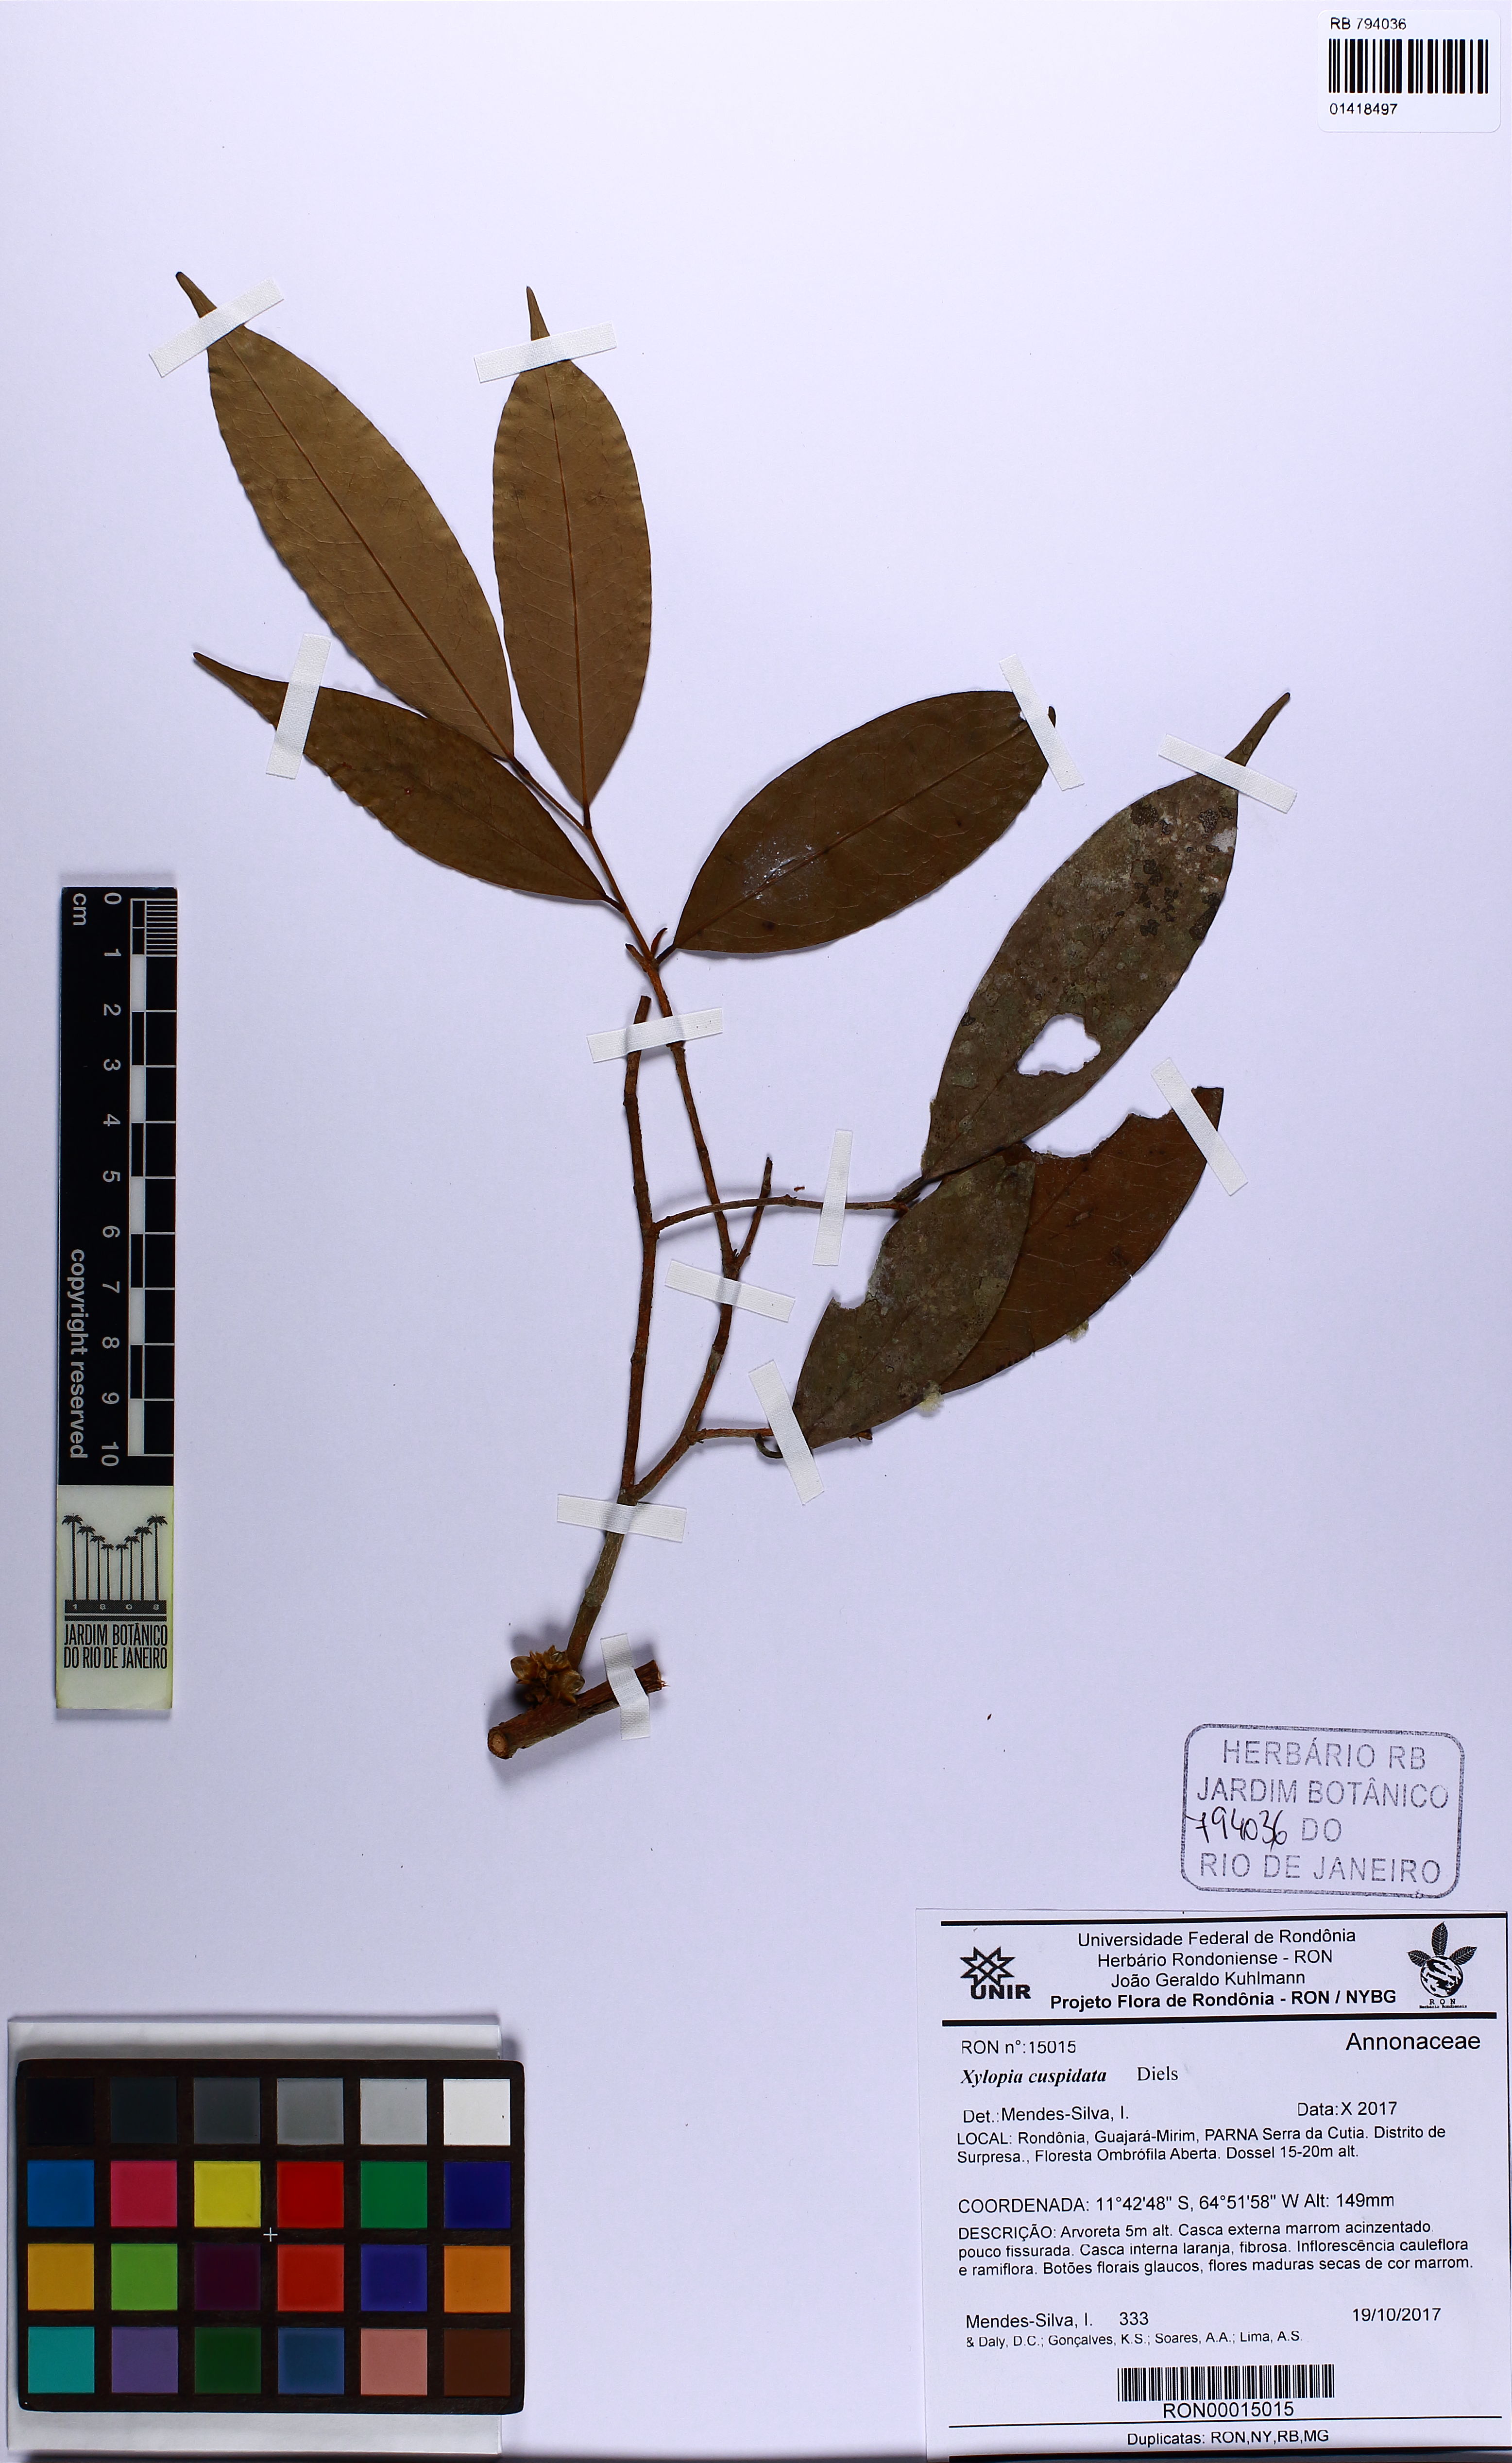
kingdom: Plantae
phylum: Tracheophyta
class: Magnoliopsida
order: Magnoliales
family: Annonaceae
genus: Xylopia
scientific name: Xylopia cuspidata
